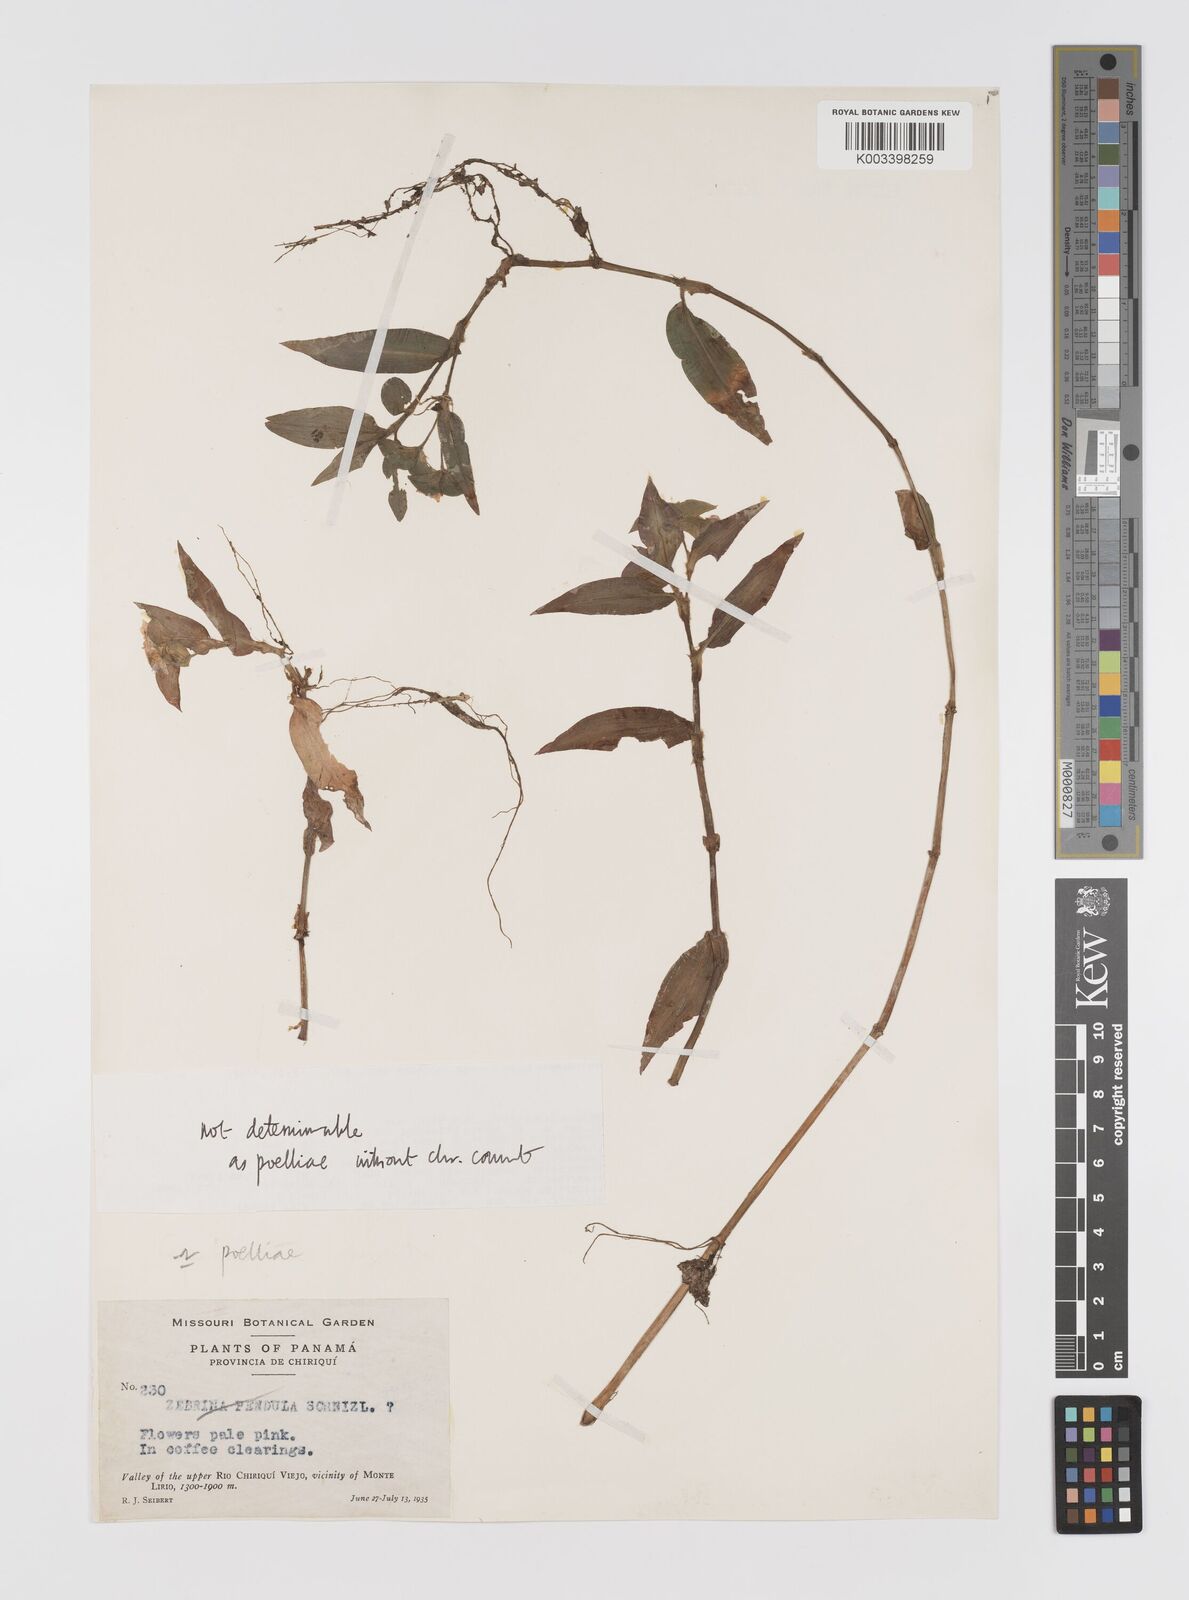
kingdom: Plantae
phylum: Tracheophyta
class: Liliopsida
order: Commelinales
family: Commelinaceae
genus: Tradescantia
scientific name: Tradescantia commelinoides
